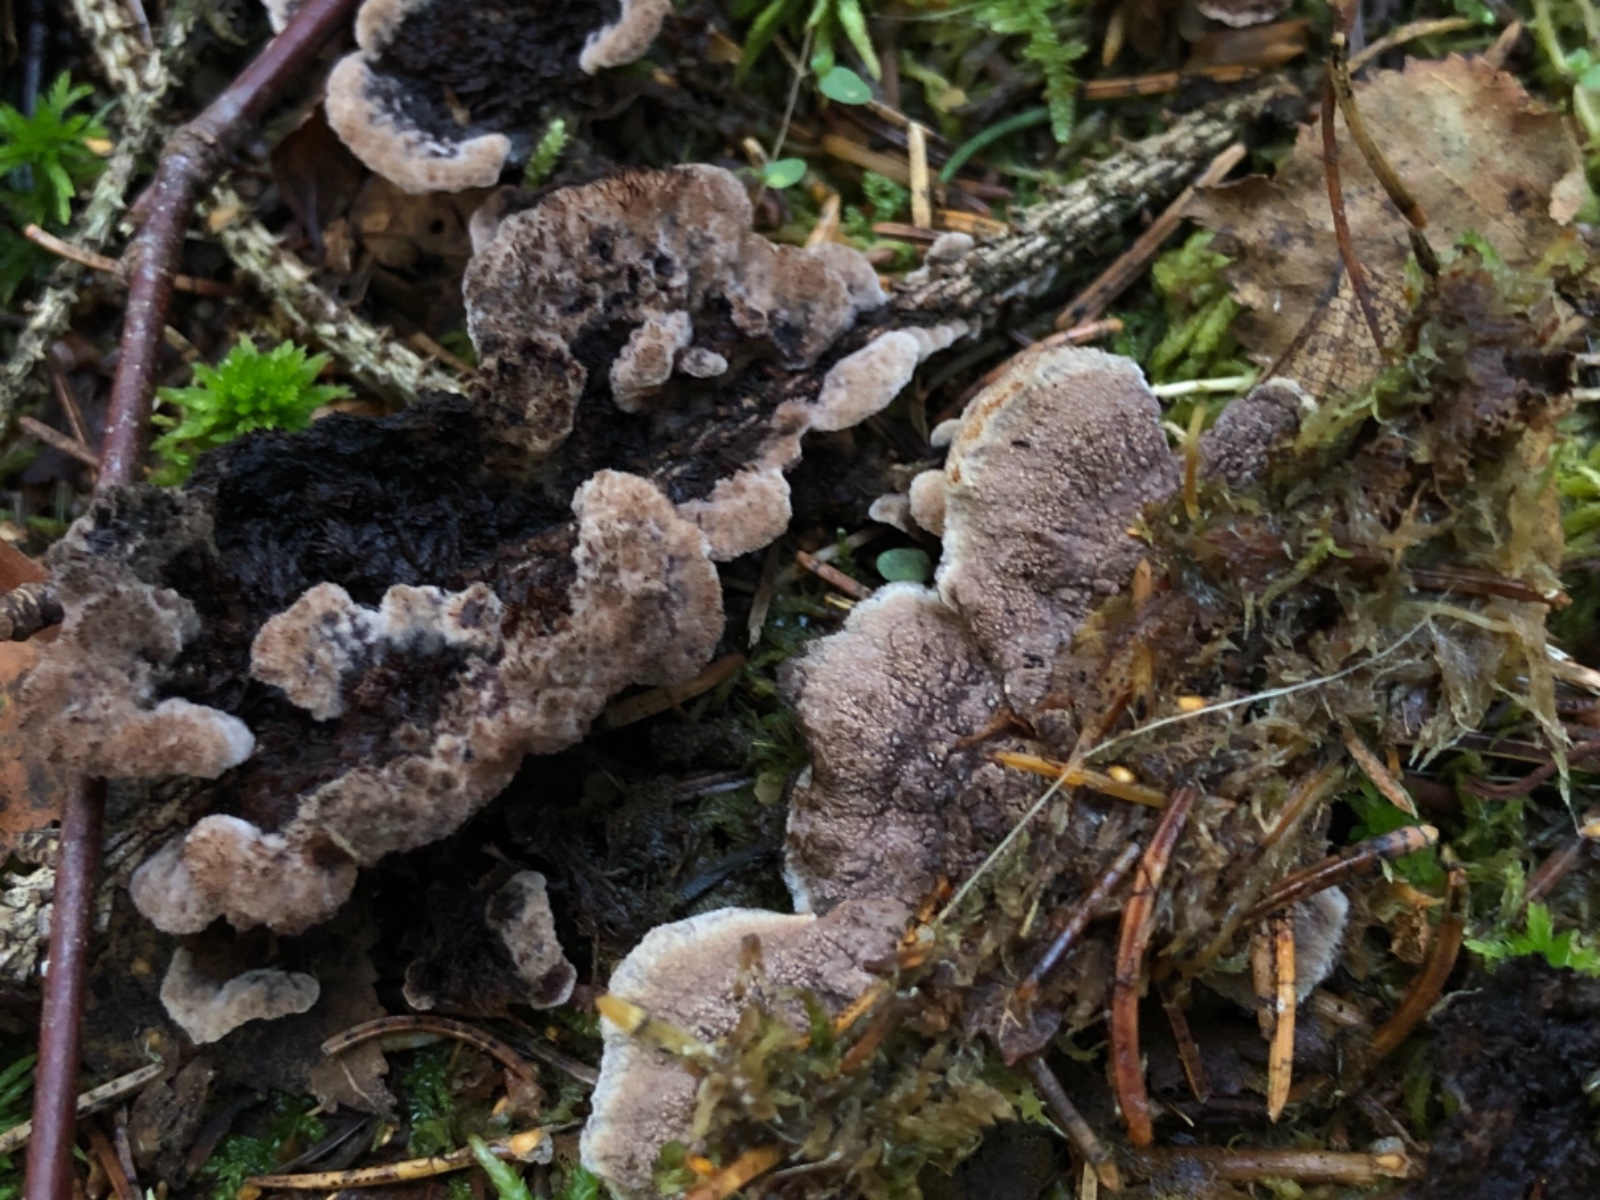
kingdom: Fungi
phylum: Basidiomycota
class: Agaricomycetes
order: Thelephorales
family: Thelephoraceae
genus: Thelephora
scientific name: Thelephora terrestris
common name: fliget frynsesvamp
